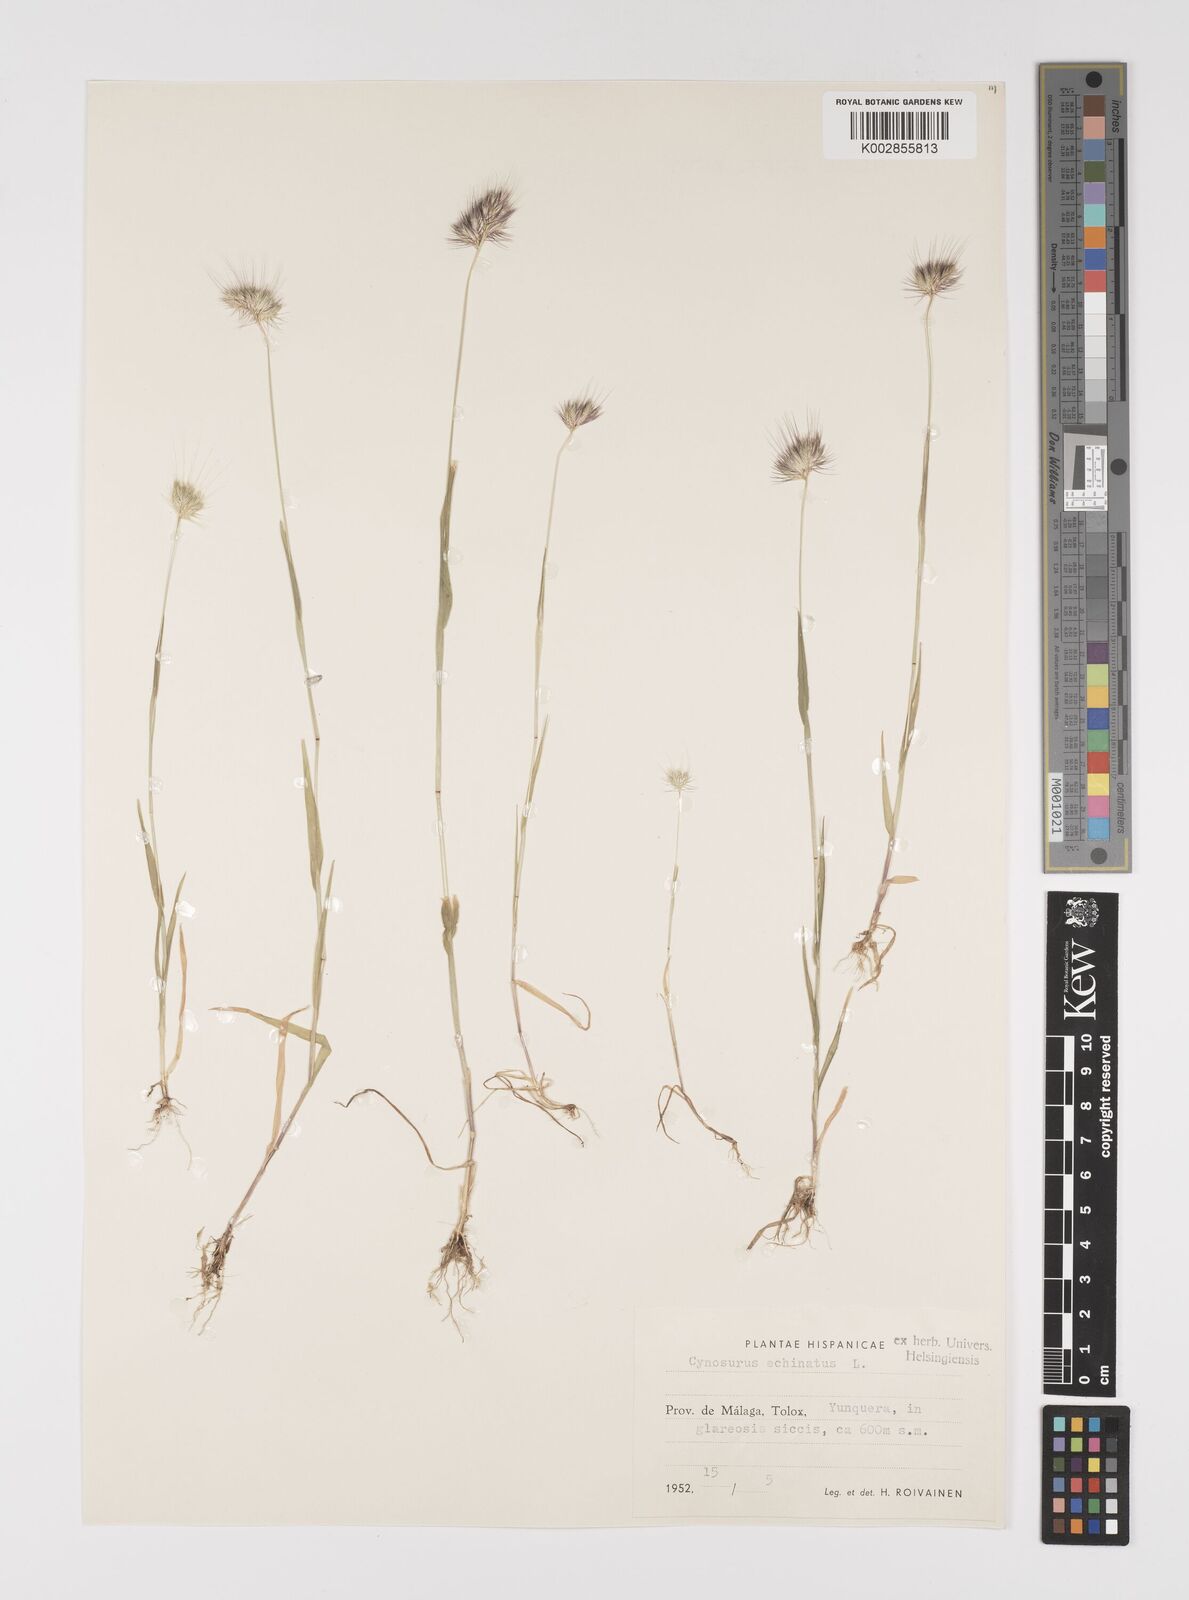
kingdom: Plantae
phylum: Tracheophyta
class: Liliopsida
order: Poales
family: Poaceae
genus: Cynosurus
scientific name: Cynosurus elegans
